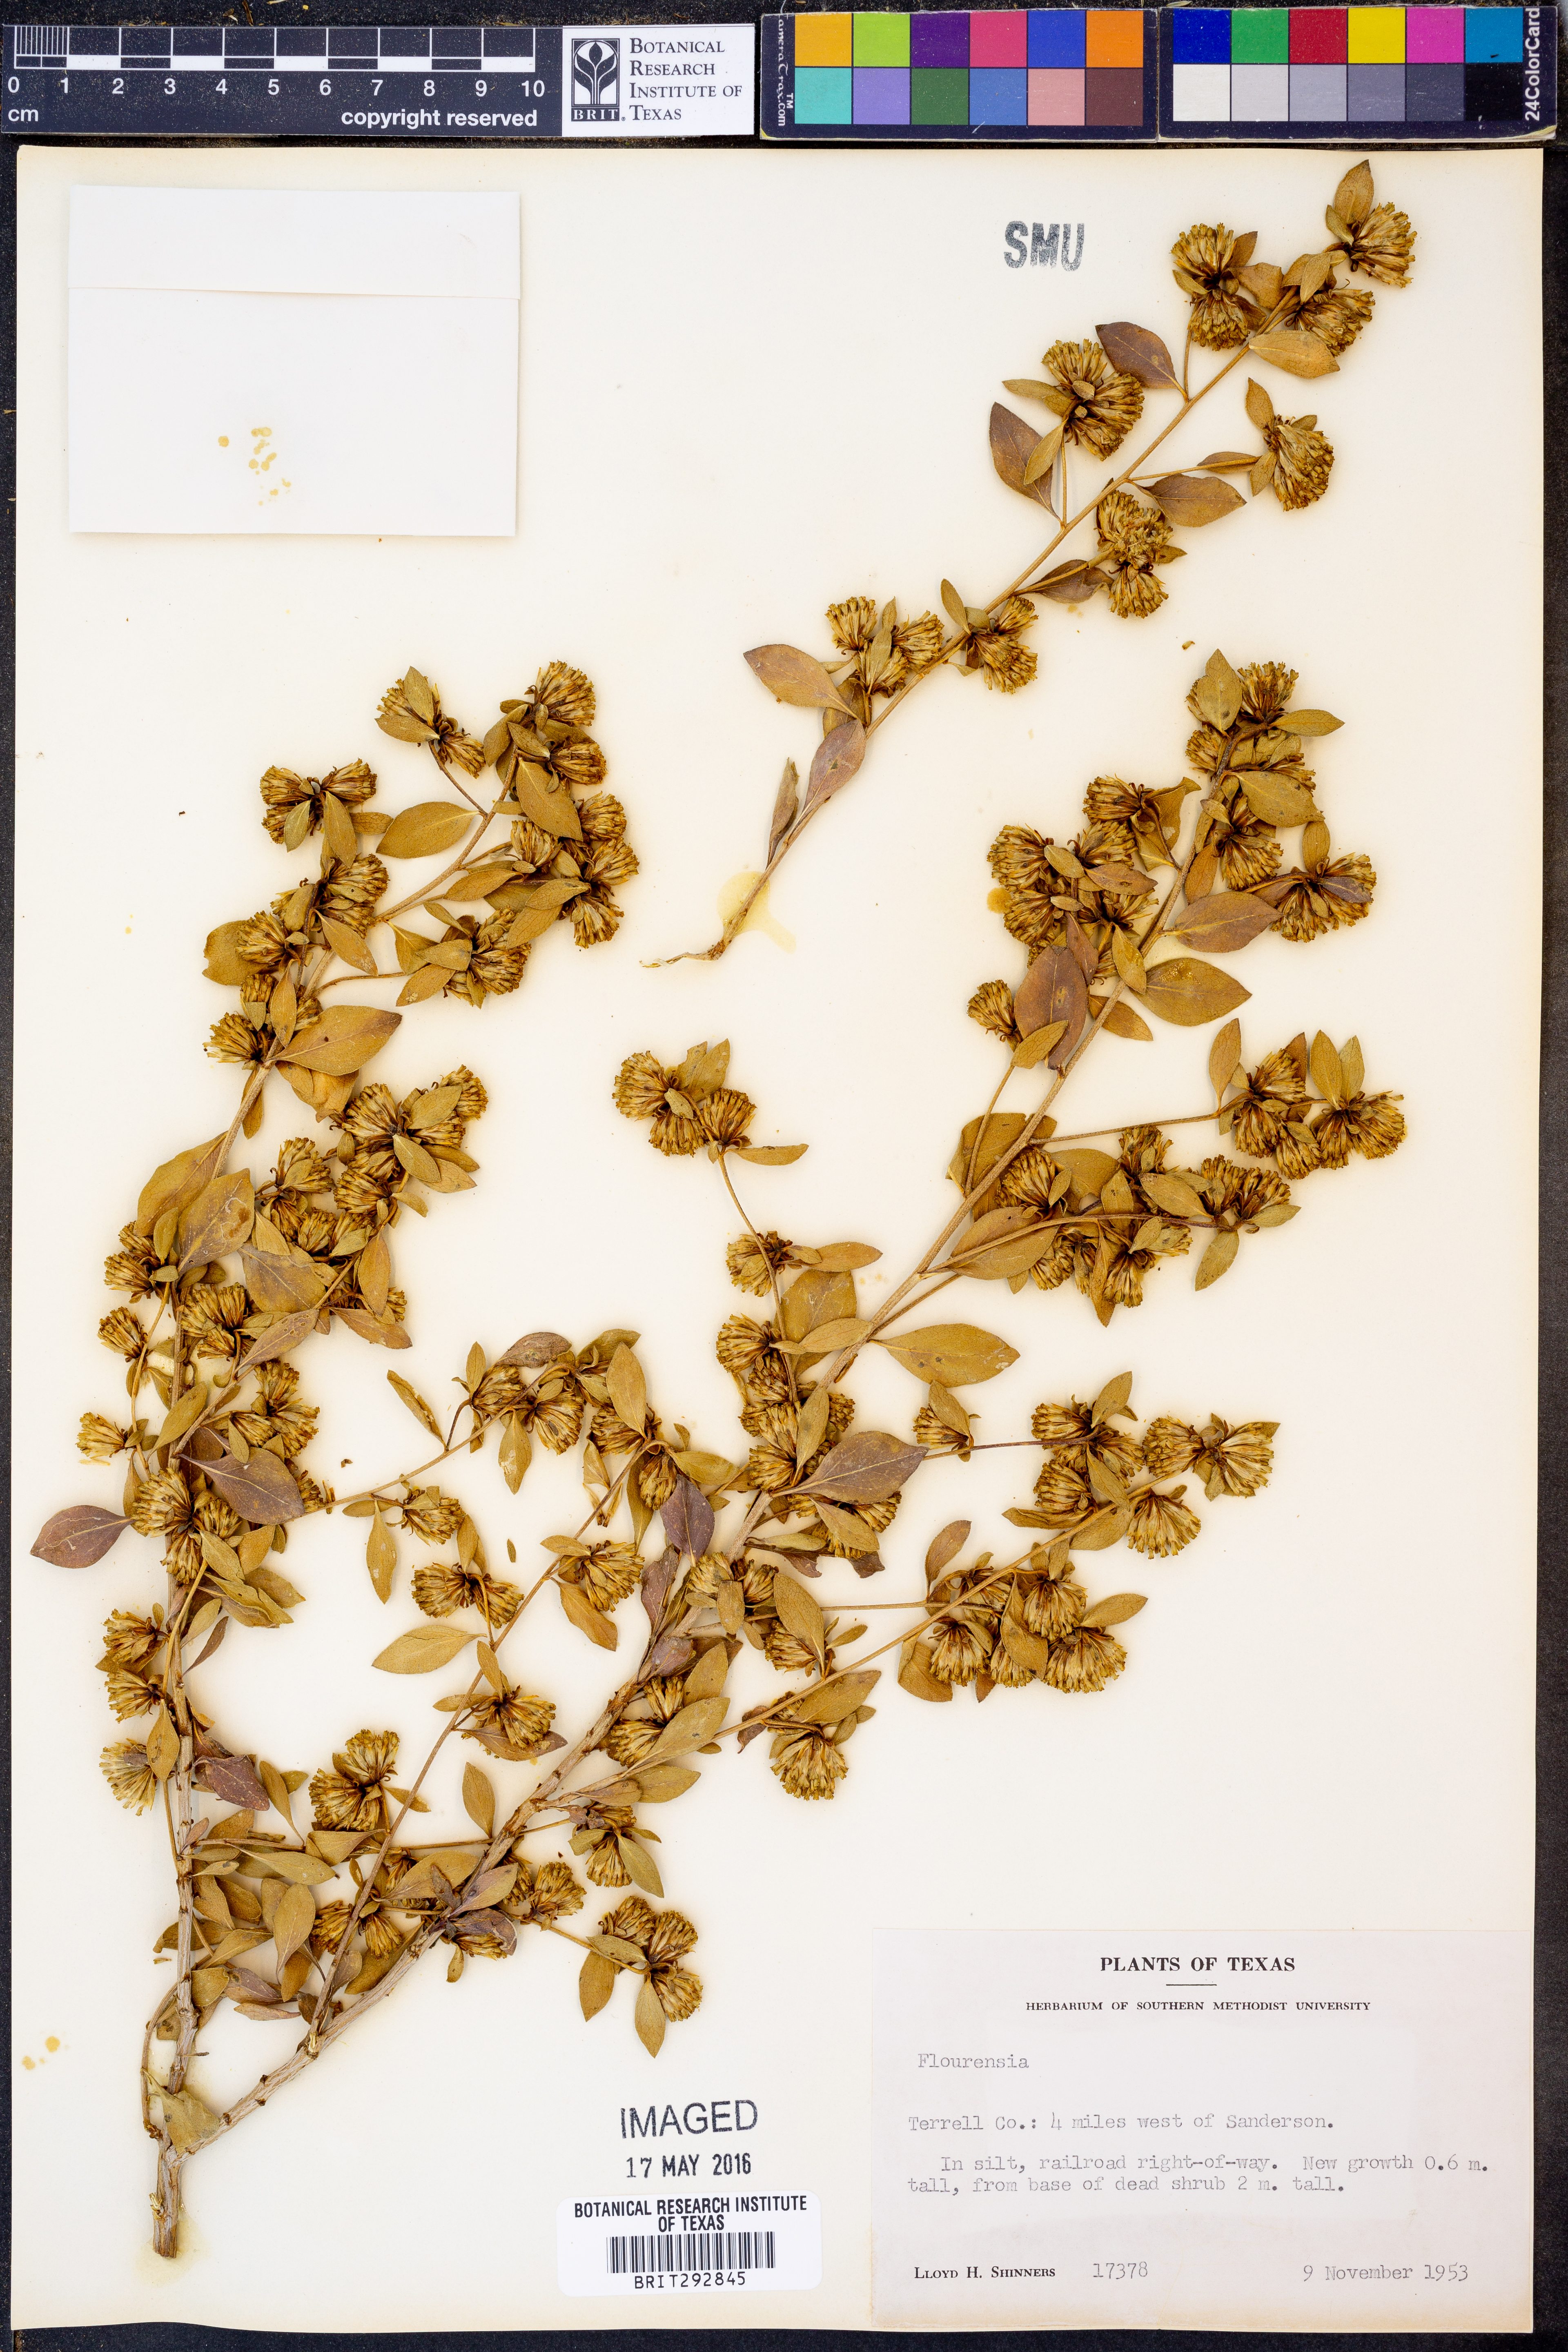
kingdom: Plantae
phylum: Tracheophyta
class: Magnoliopsida
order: Asterales
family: Asteraceae
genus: Flourensia
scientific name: Flourensia
